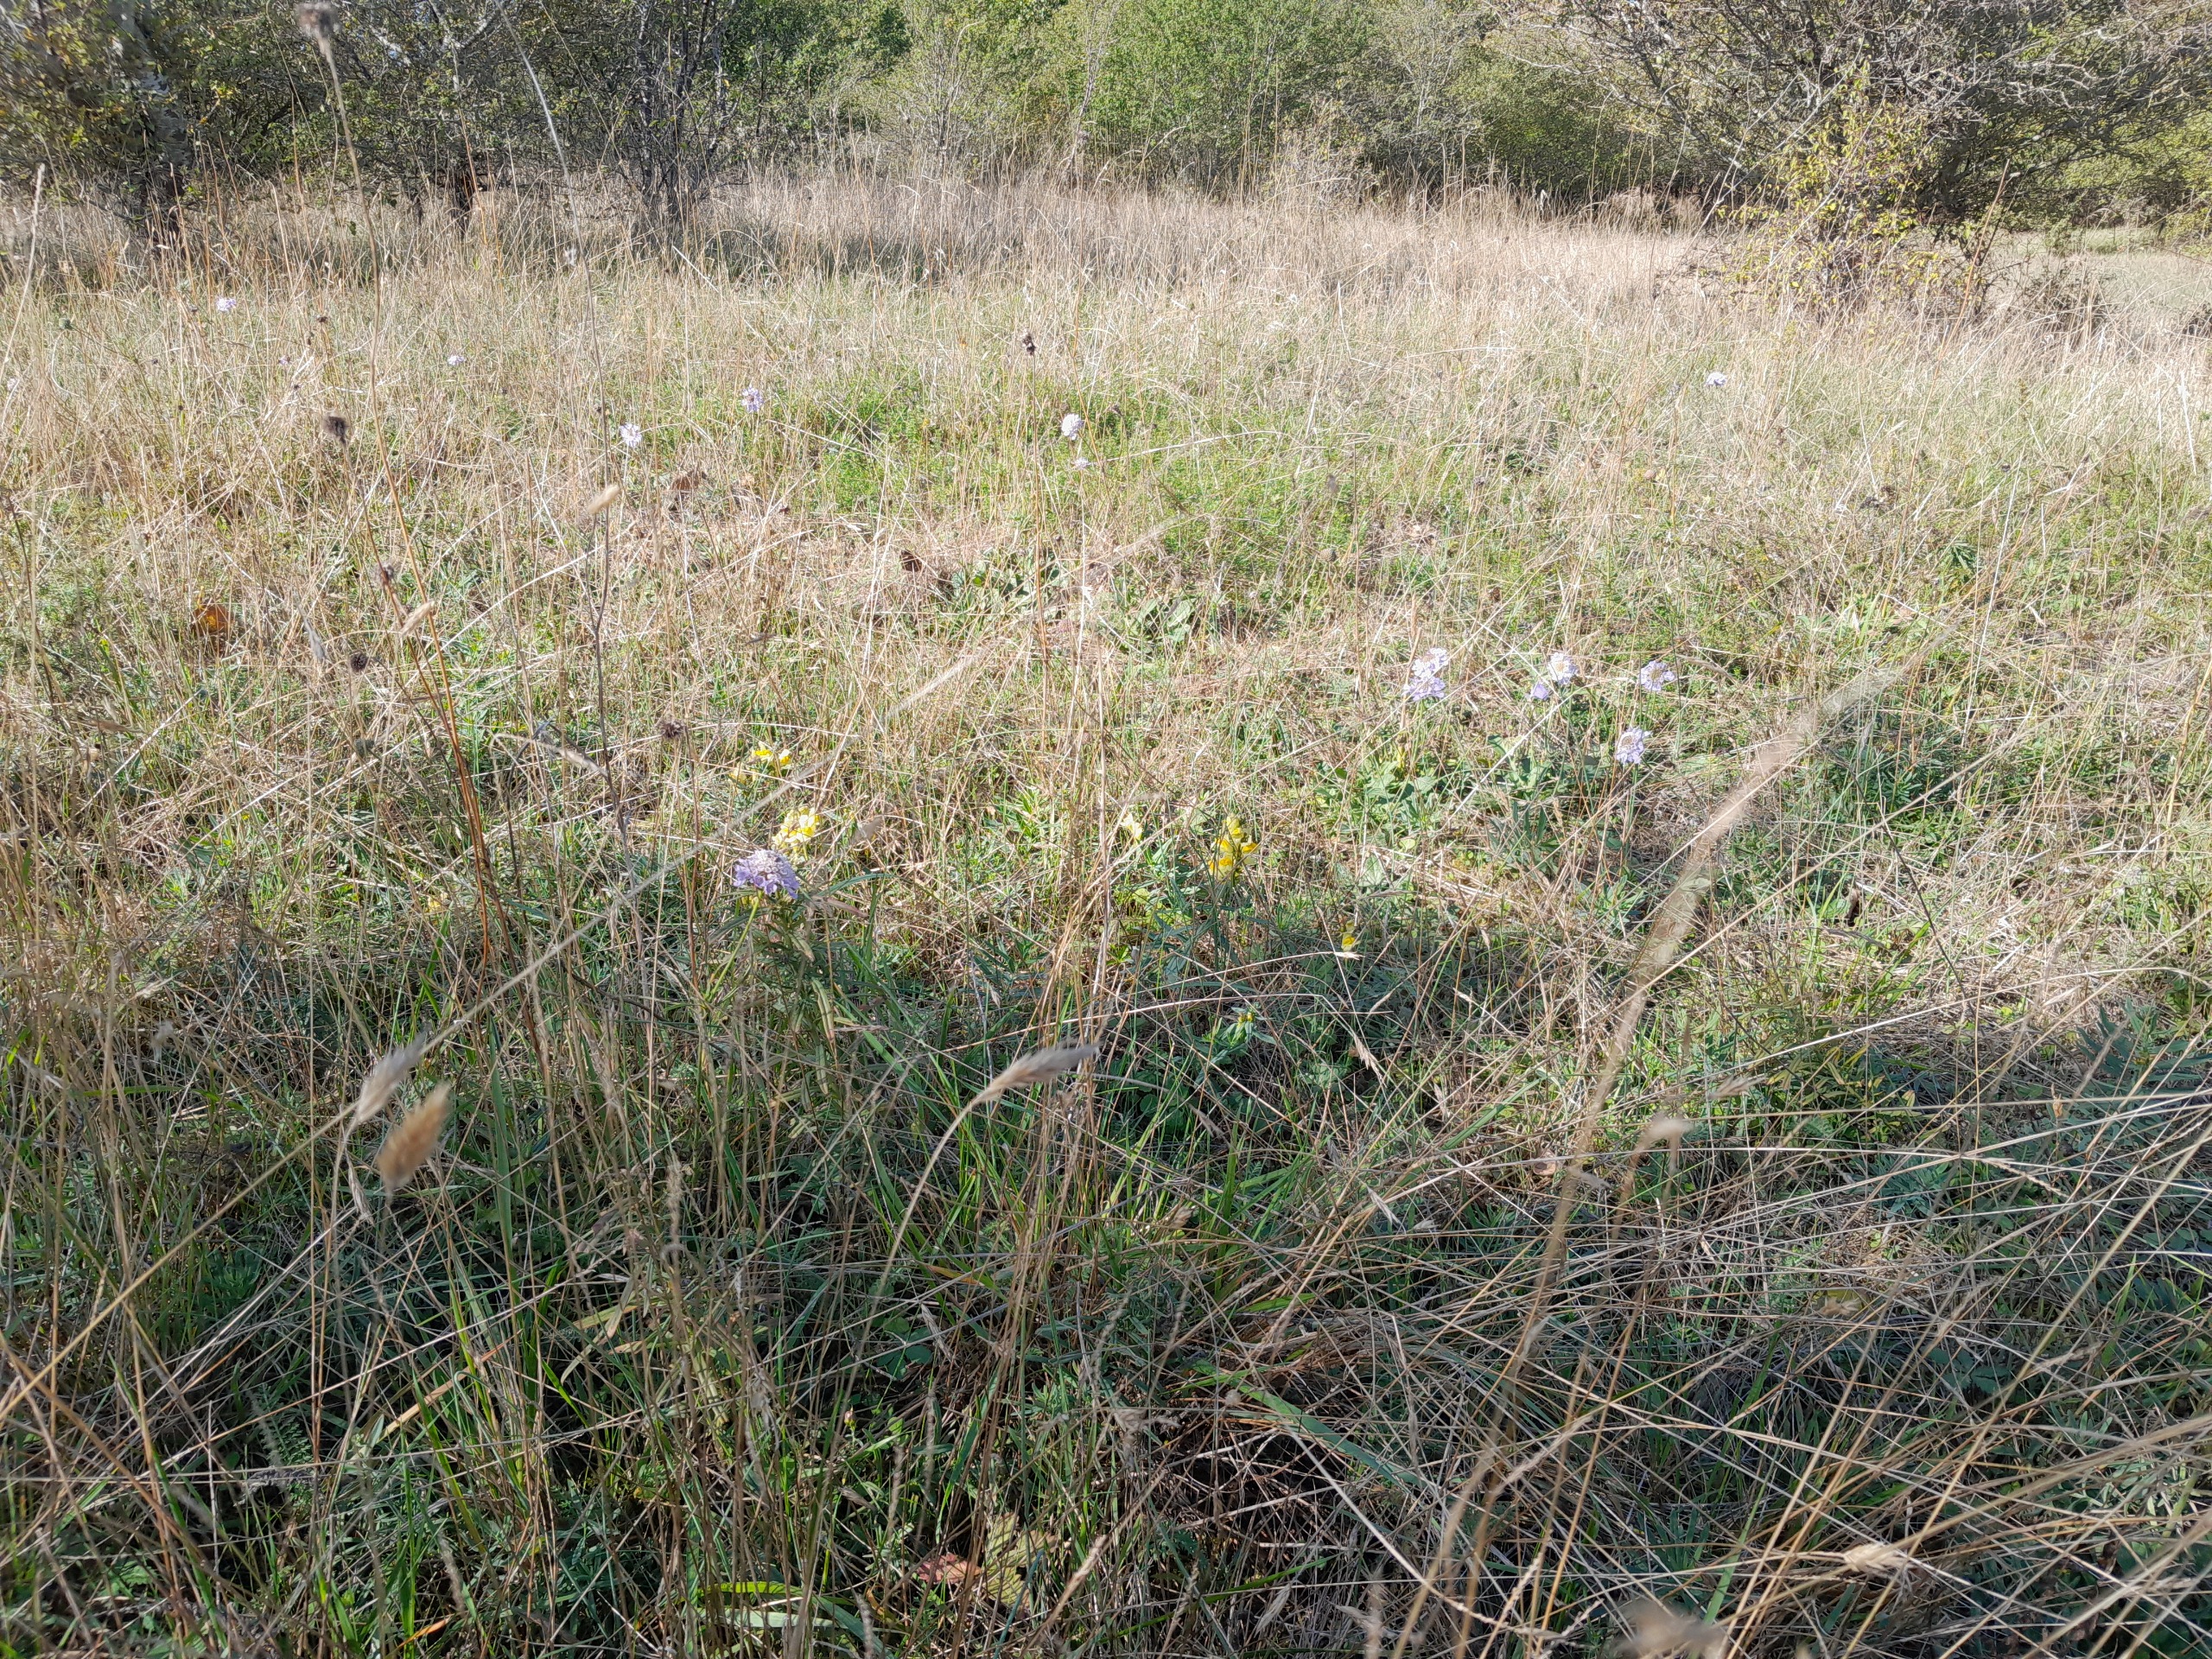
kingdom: Plantae
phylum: Tracheophyta
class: Magnoliopsida
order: Dipsacales
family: Caprifoliaceae
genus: Scabiosa
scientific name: Scabiosa columbaria
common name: Due-skabiose
